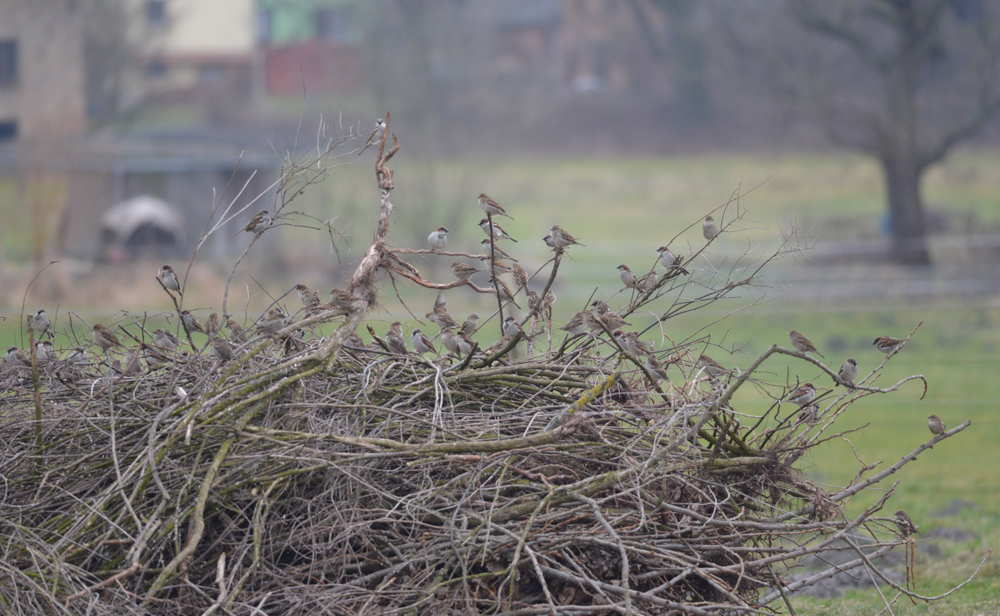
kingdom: Animalia
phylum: Chordata
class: Aves
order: Passeriformes
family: Passeridae
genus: Passer
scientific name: Passer domesticus
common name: House sparrow
